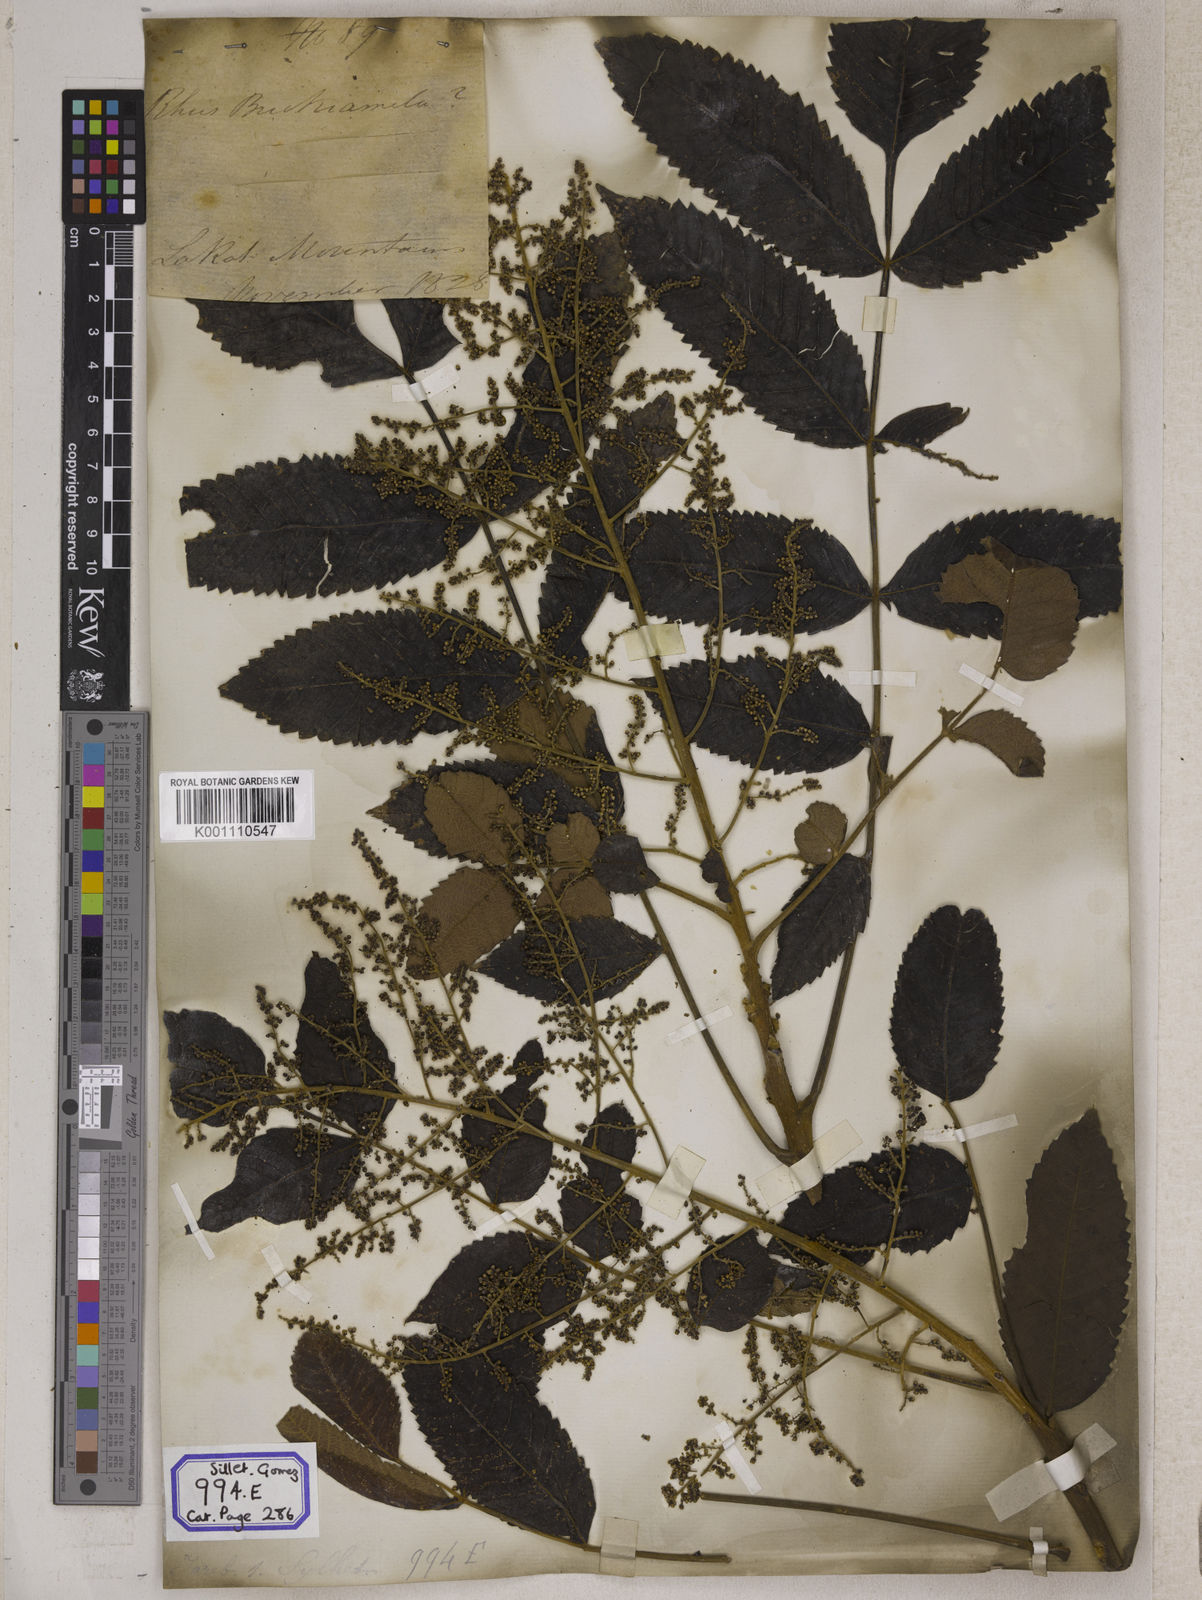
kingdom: Plantae
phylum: Tracheophyta
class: Magnoliopsida
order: Sapindales
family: Simaroubaceae
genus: Brucea
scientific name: Brucea javanica
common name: Macassar kernels
